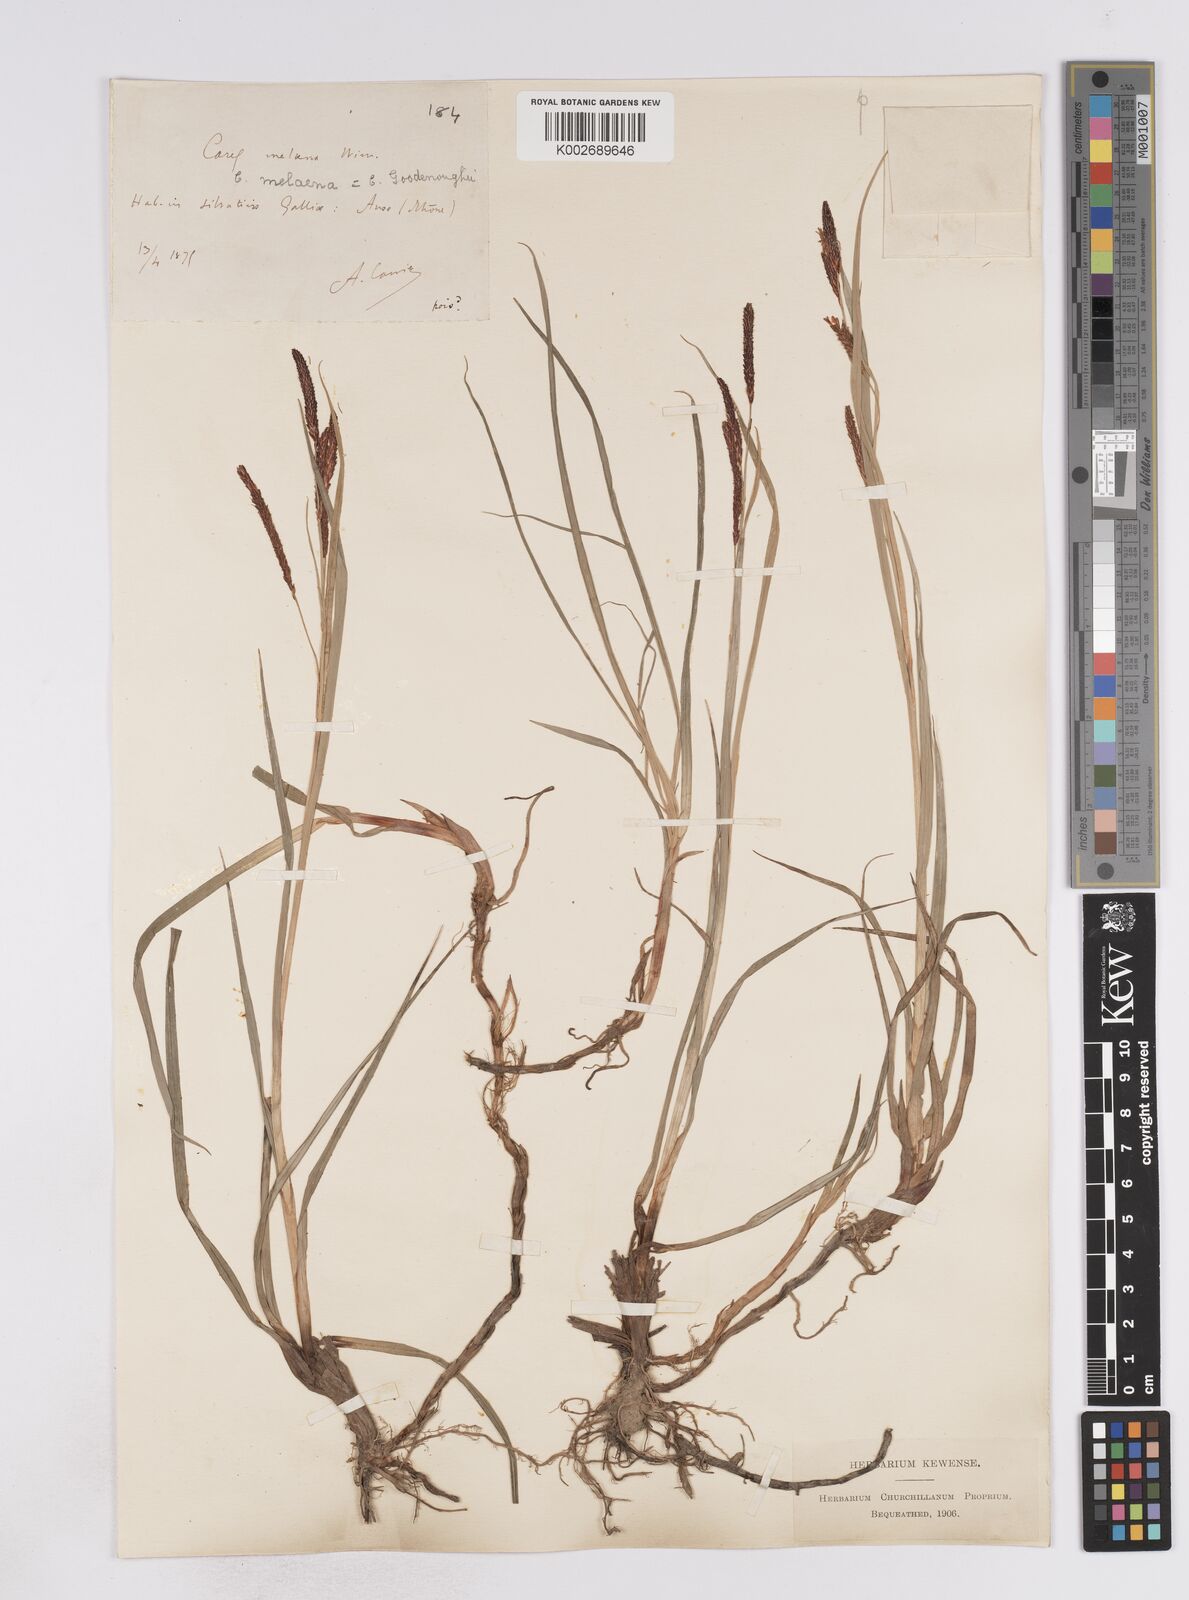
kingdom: Plantae
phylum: Tracheophyta
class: Liliopsida
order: Poales
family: Cyperaceae
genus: Carex
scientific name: Carex flacca
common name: Glaucous sedge
